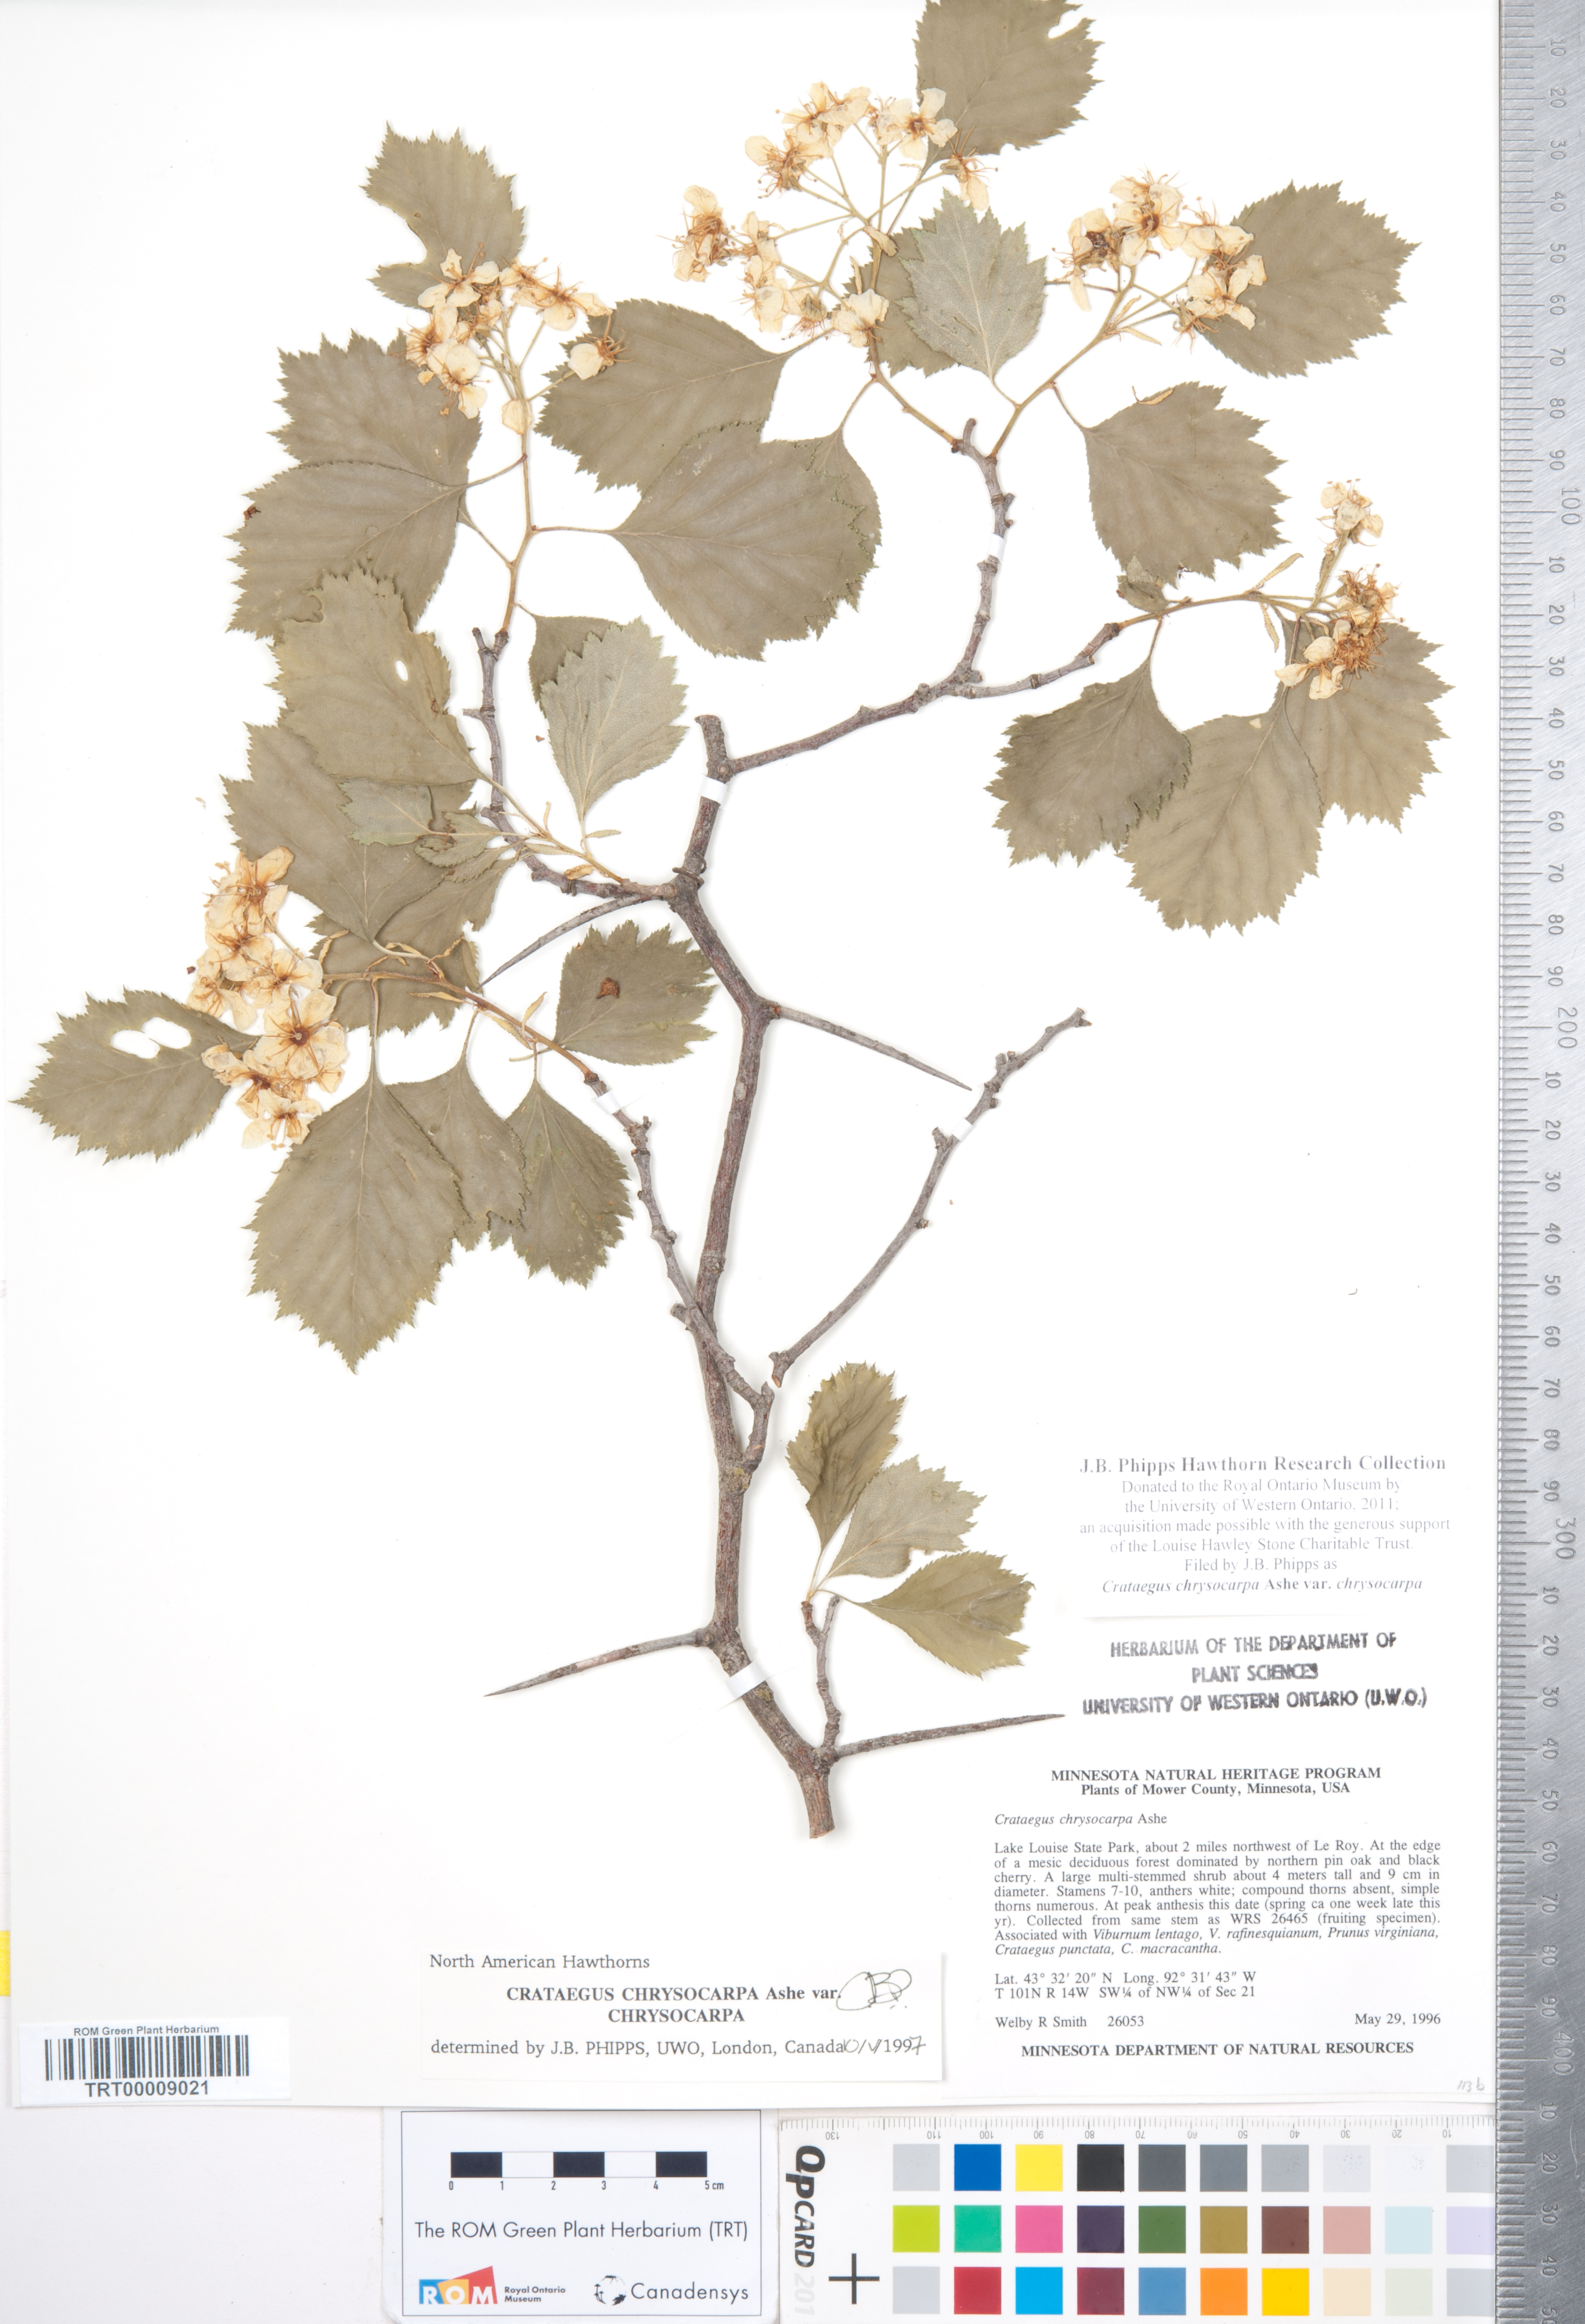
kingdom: Plantae
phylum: Tracheophyta
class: Magnoliopsida
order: Rosales
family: Rosaceae
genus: Crataegus
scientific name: Crataegus chrysocarpa
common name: Fire-berry hawthorn
